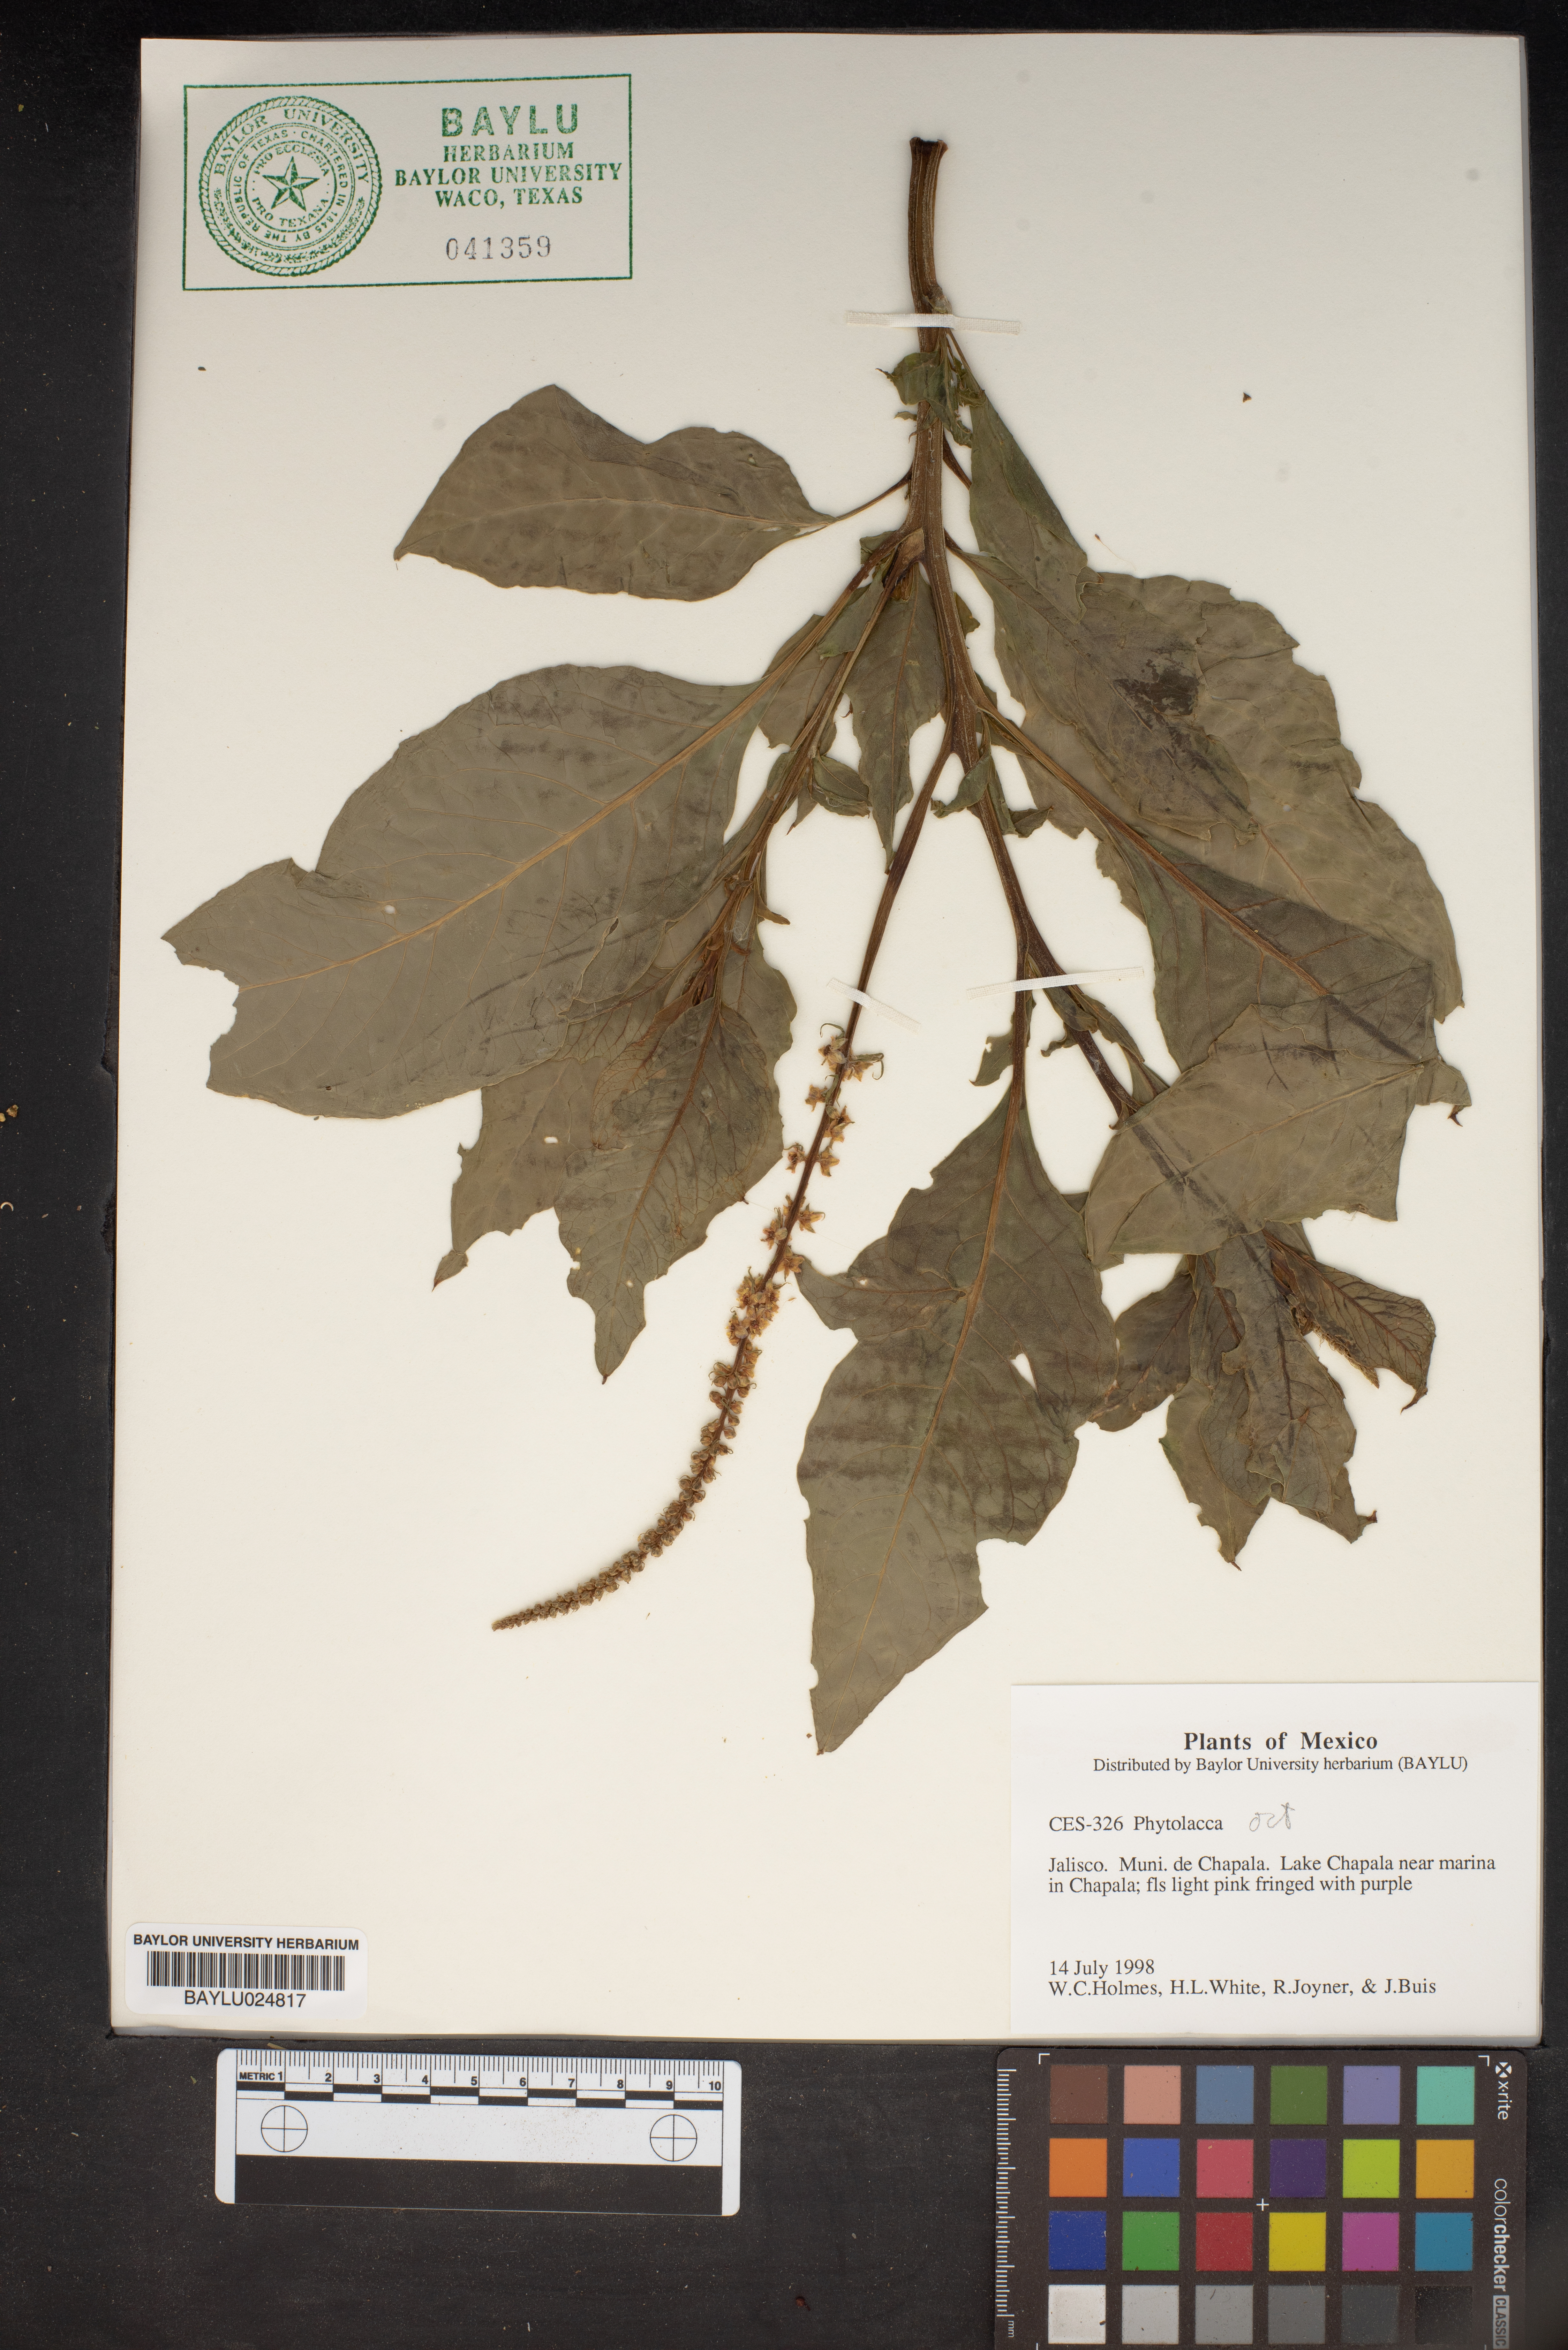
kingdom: Plantae
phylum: Tracheophyta
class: Magnoliopsida
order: Caryophyllales
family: Phytolaccaceae
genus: Phytolacca
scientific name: Phytolacca icosandra
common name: Button pokeweed
